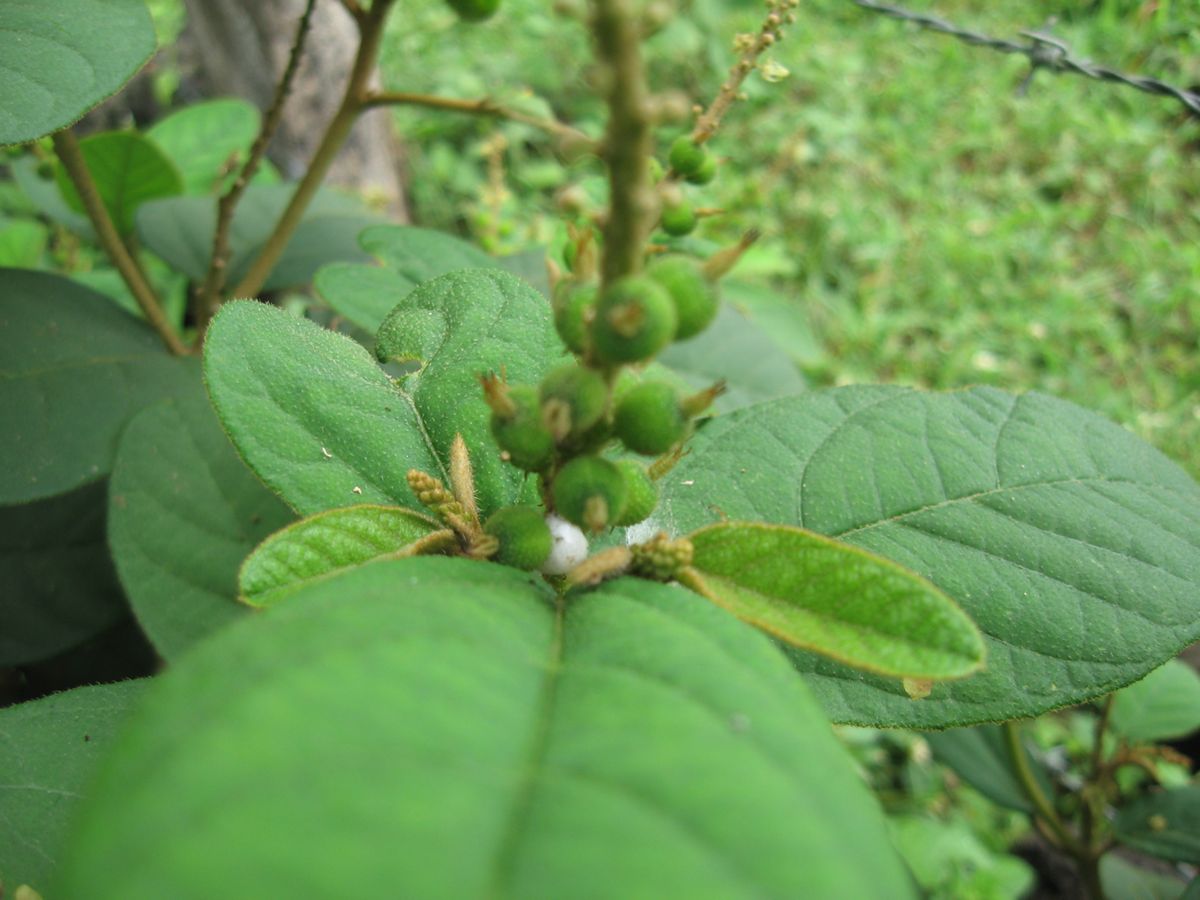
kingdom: Plantae
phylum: Tracheophyta
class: Magnoliopsida
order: Malpighiales
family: Euphorbiaceae
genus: Croton
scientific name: Croton payaquensis
